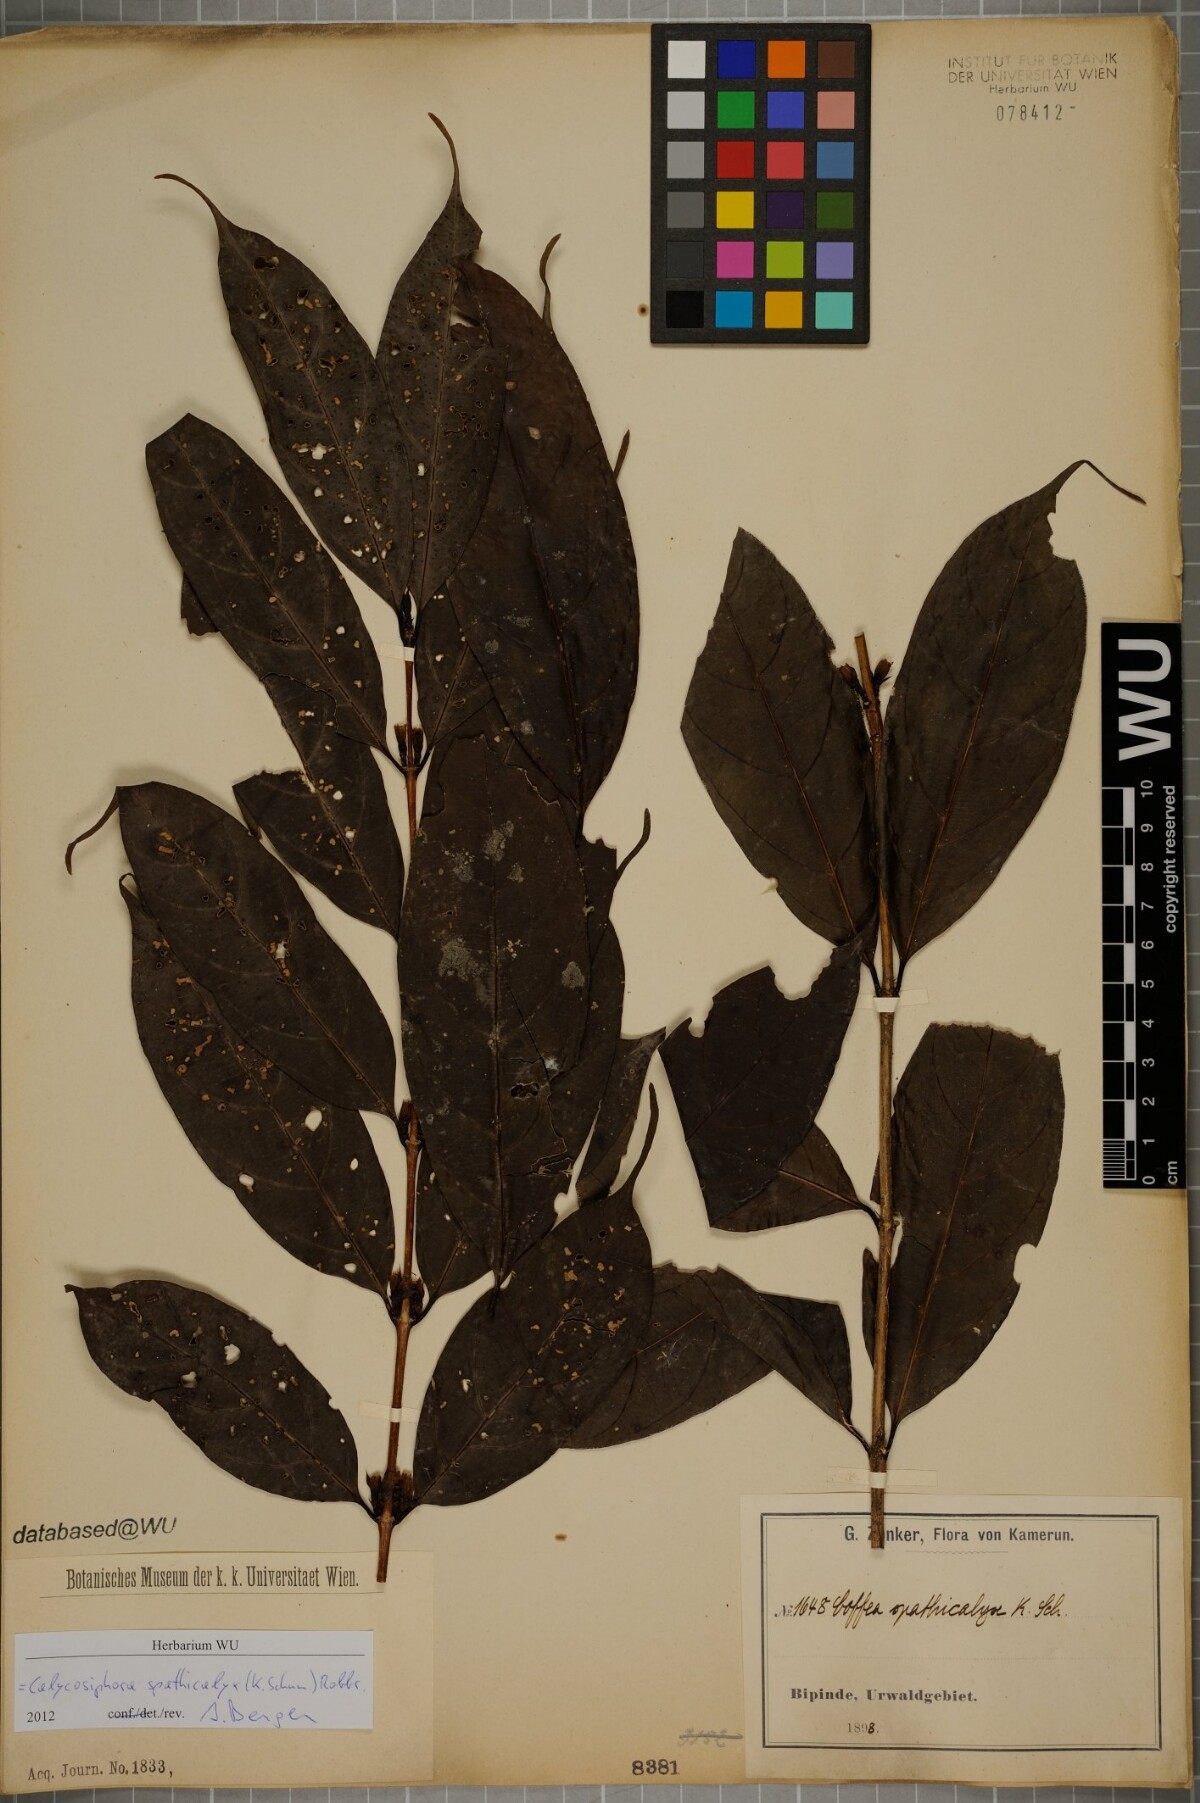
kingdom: Plantae
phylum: Tracheophyta
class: Magnoliopsida
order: Gentianales
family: Rubiaceae
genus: Calycosiphonia
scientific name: Calycosiphonia spathicalyx
